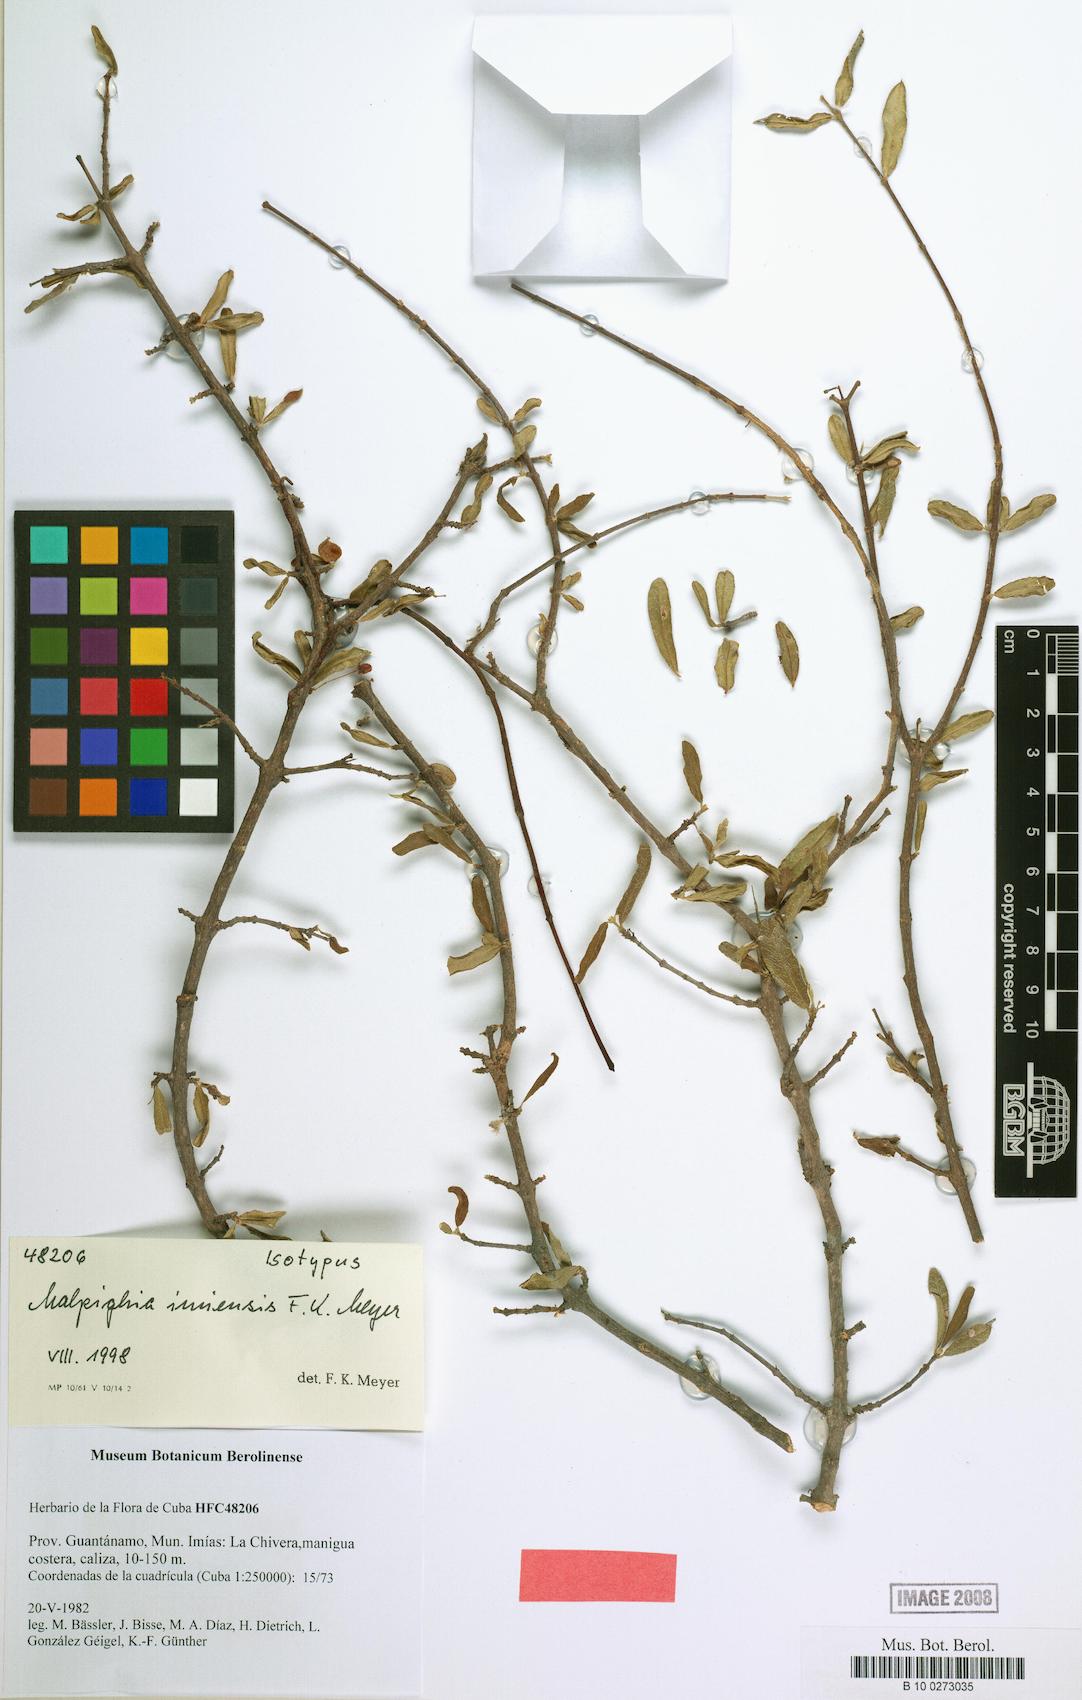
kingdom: Plantae
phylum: Tracheophyta
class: Magnoliopsida
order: Malpighiales
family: Malpighiaceae
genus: Malpighia
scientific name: Malpighia setosa
